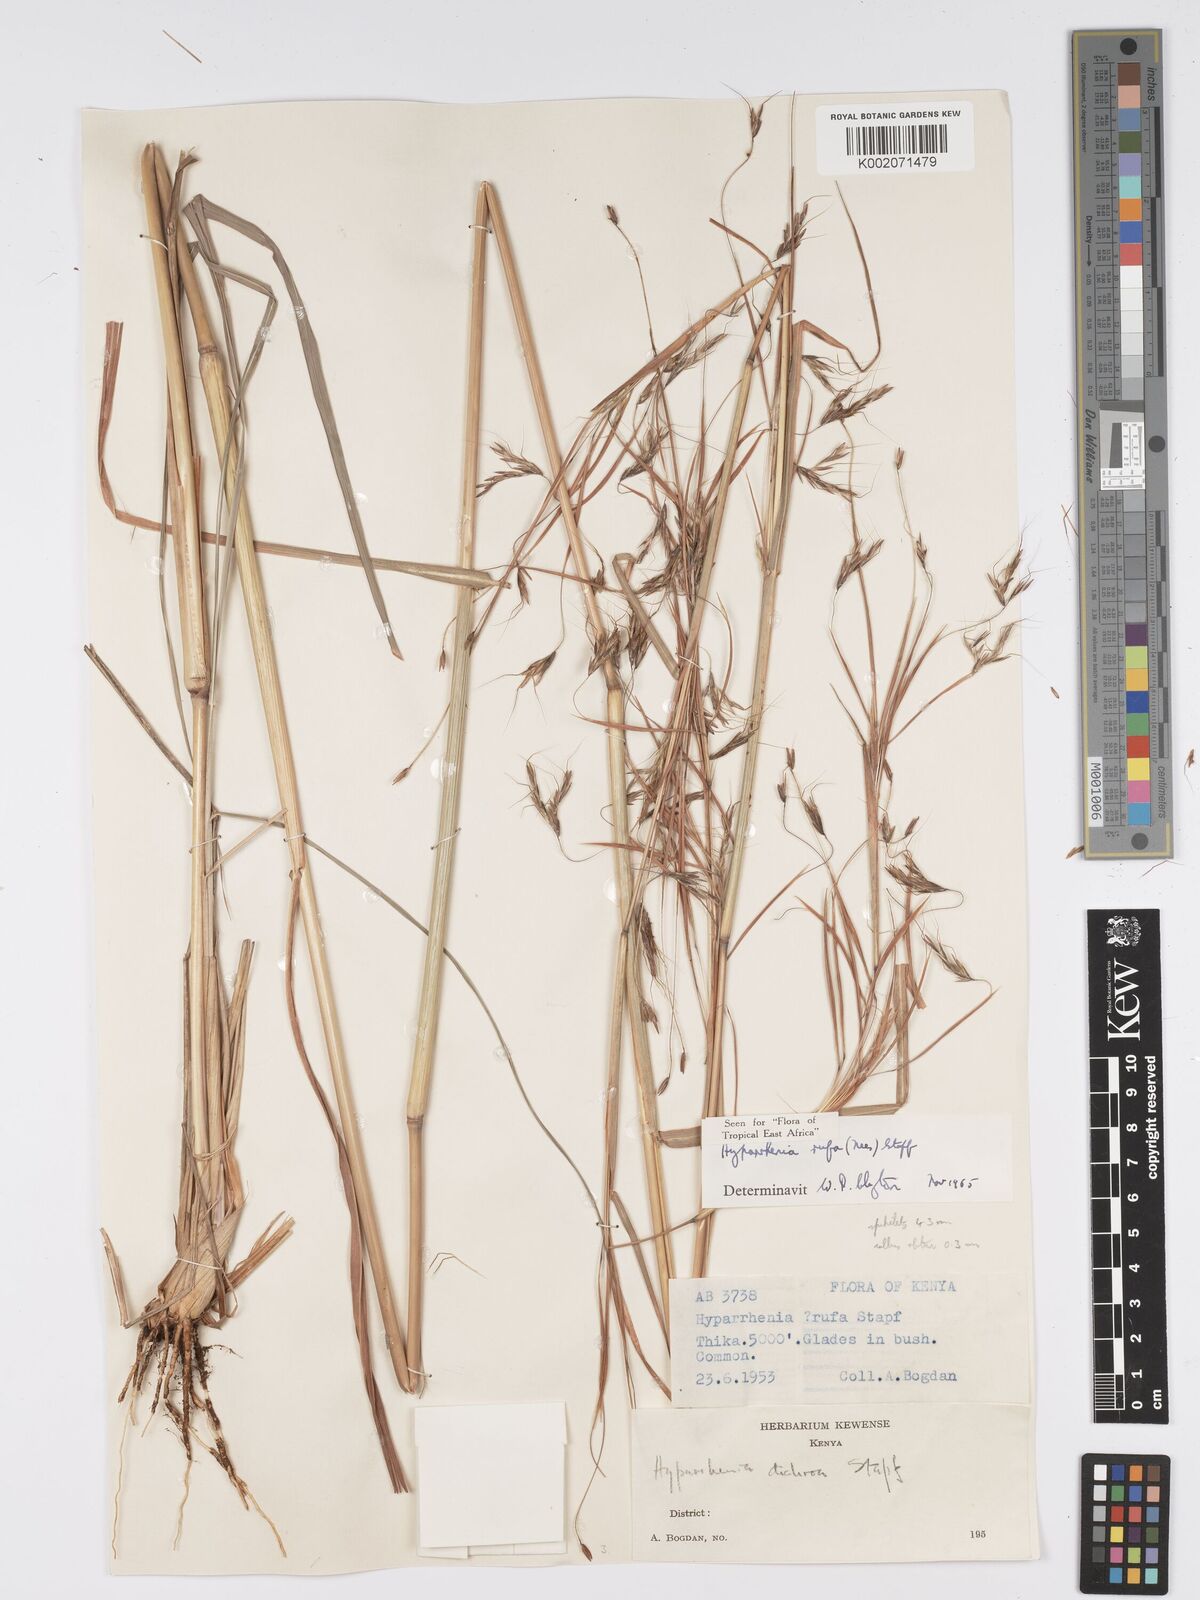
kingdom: Plantae
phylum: Tracheophyta
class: Liliopsida
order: Poales
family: Poaceae
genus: Hyparrhenia
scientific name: Hyparrhenia rufa
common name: Jaraguagrass
